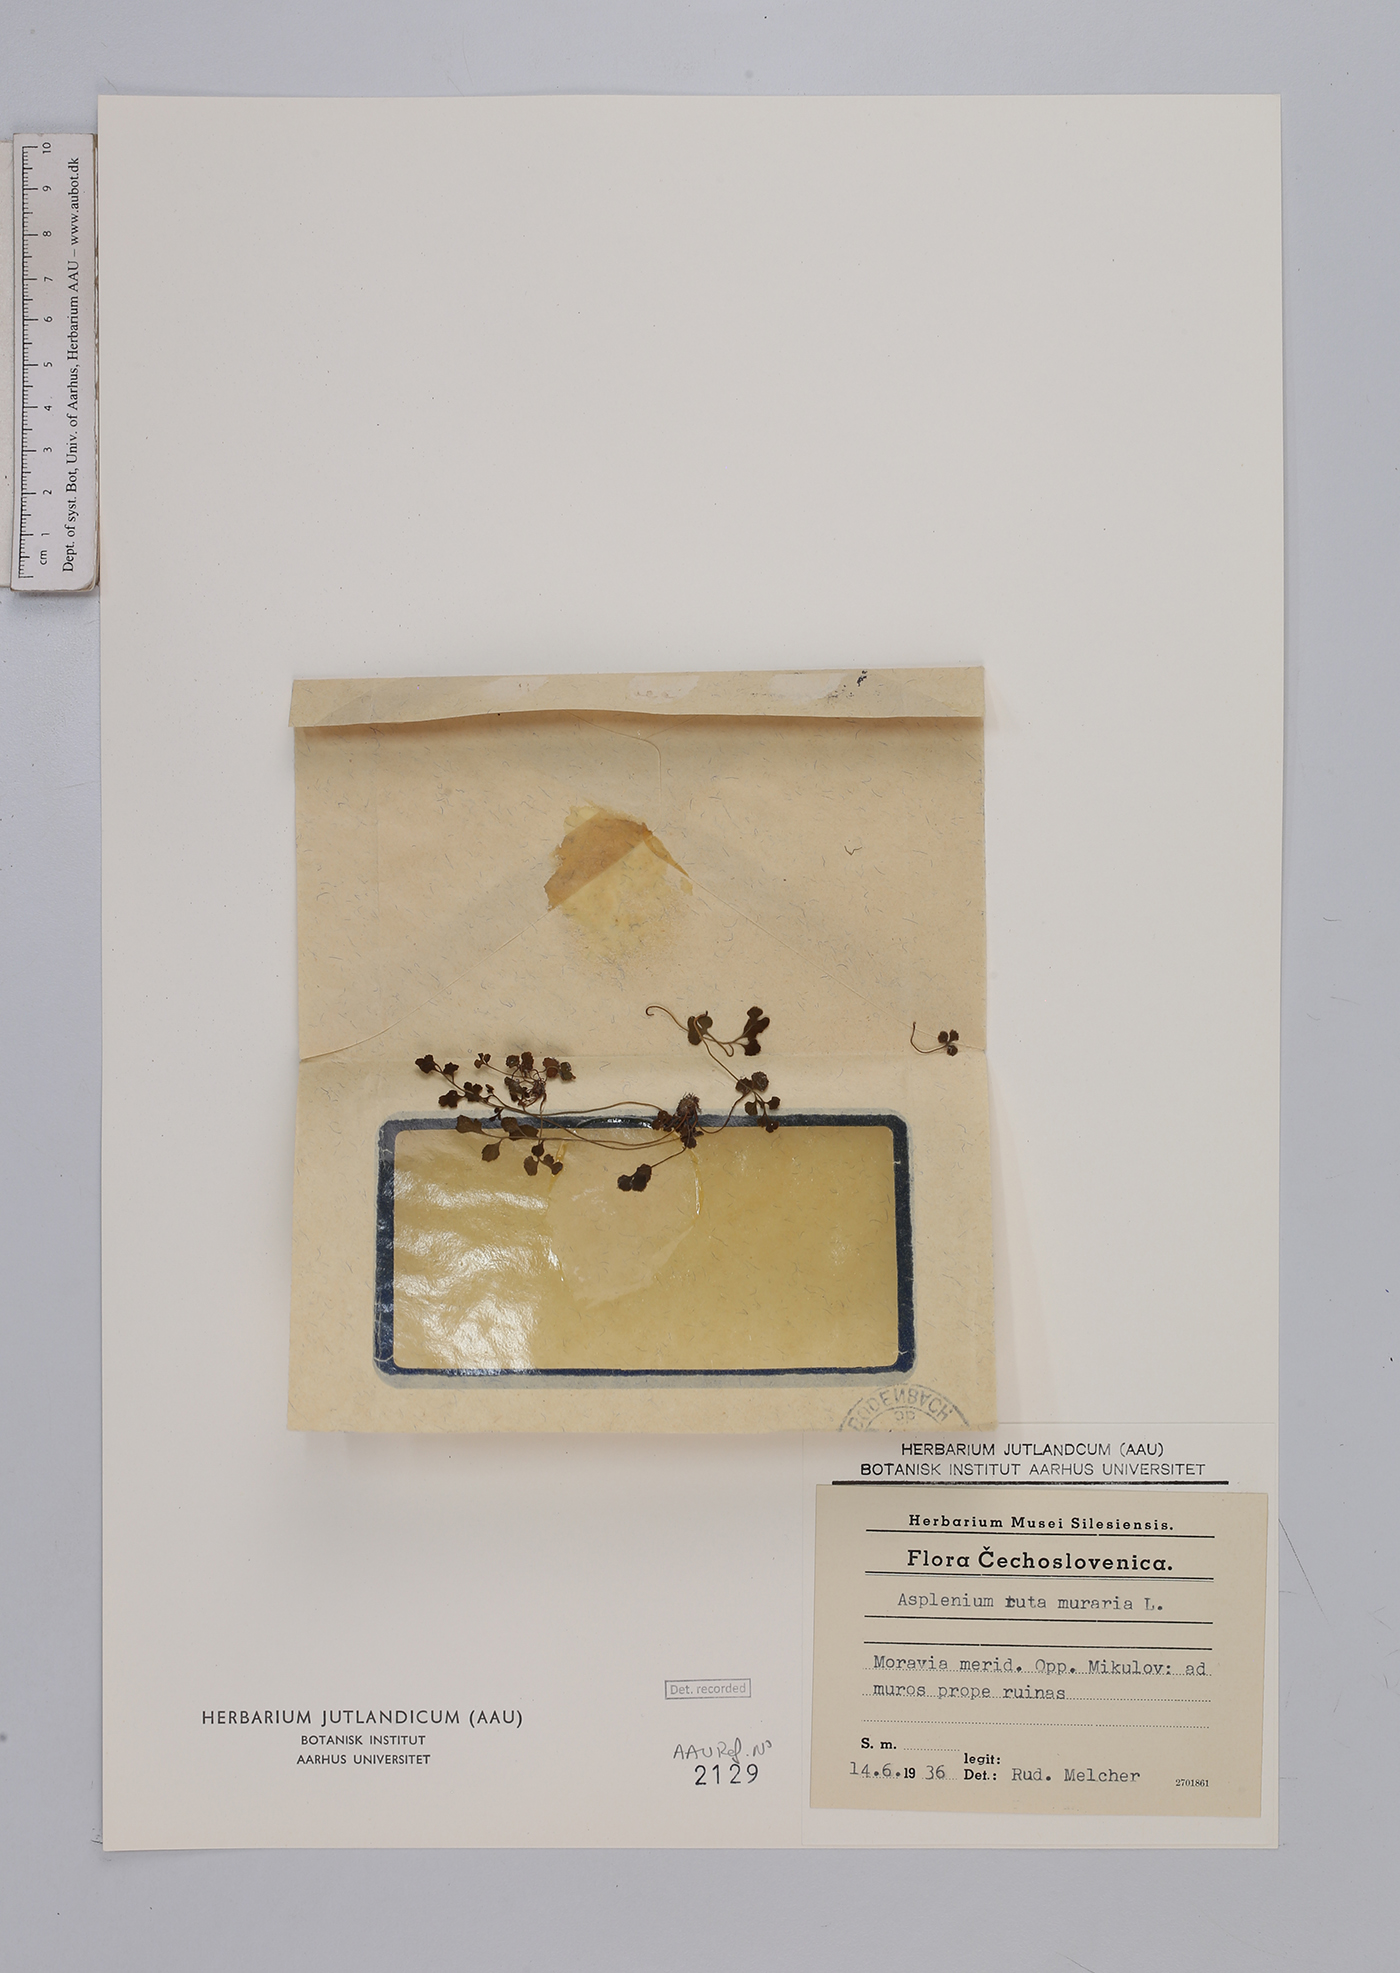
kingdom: Plantae
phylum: Tracheophyta
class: Polypodiopsida
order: Polypodiales
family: Aspleniaceae
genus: Asplenium
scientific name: Asplenium ruta-muraria
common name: Wall-rue
